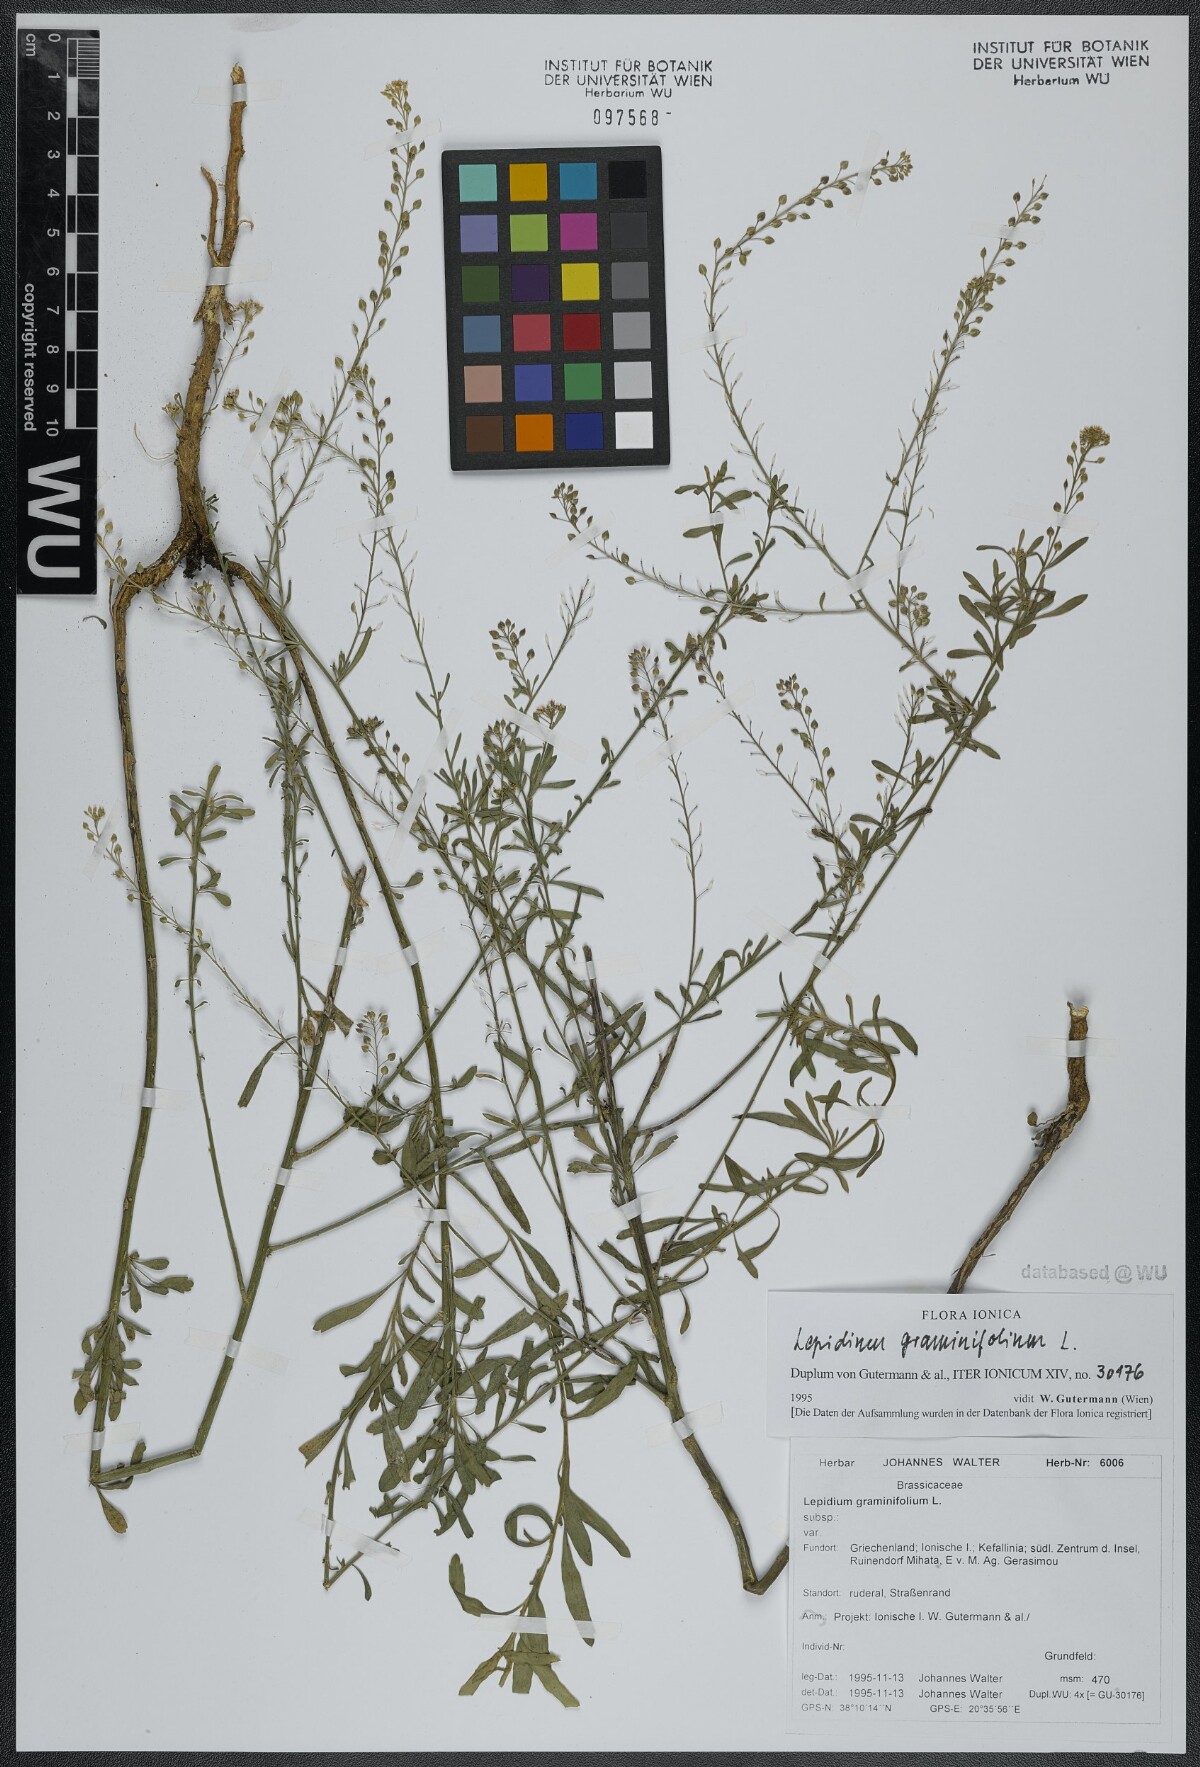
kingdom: Plantae
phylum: Tracheophyta
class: Magnoliopsida
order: Brassicales
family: Brassicaceae
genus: Lepidium
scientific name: Lepidium graminifolium
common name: Tall pepperwort
